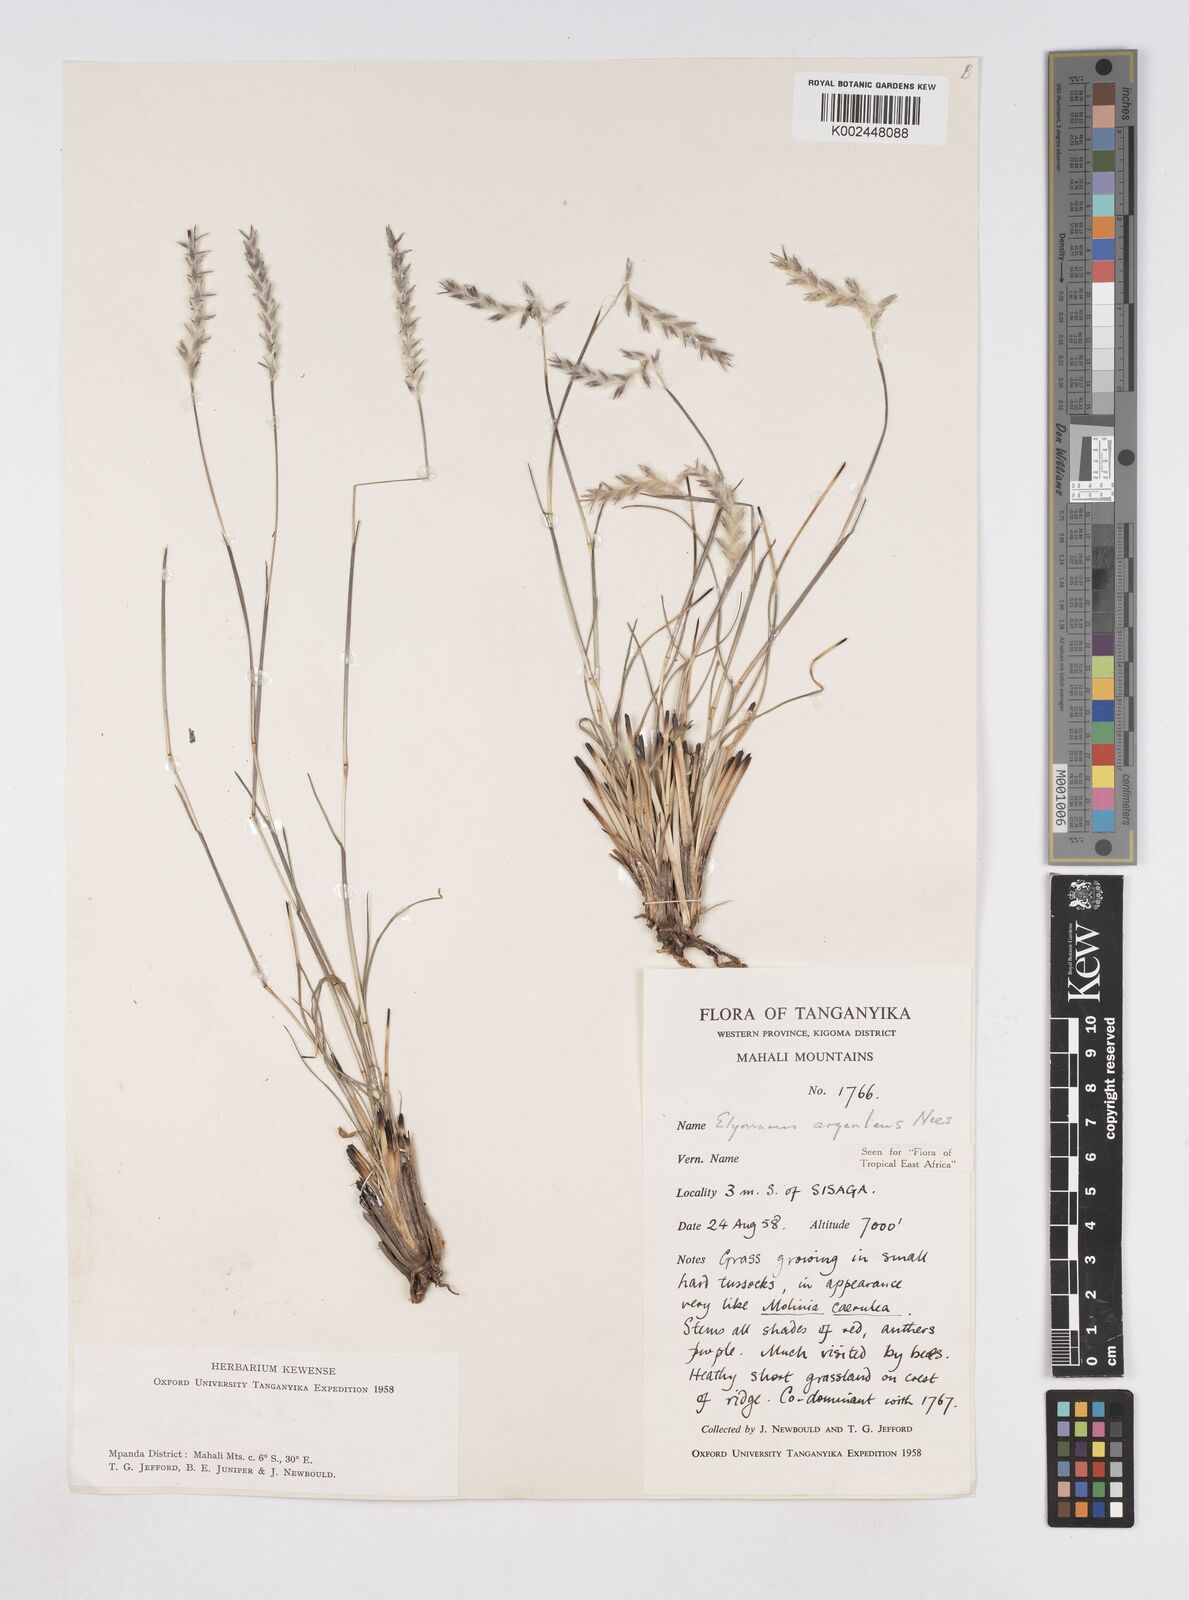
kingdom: Plantae
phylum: Tracheophyta
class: Liliopsida
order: Poales
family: Poaceae
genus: Elionurus
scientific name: Elionurus muticus
